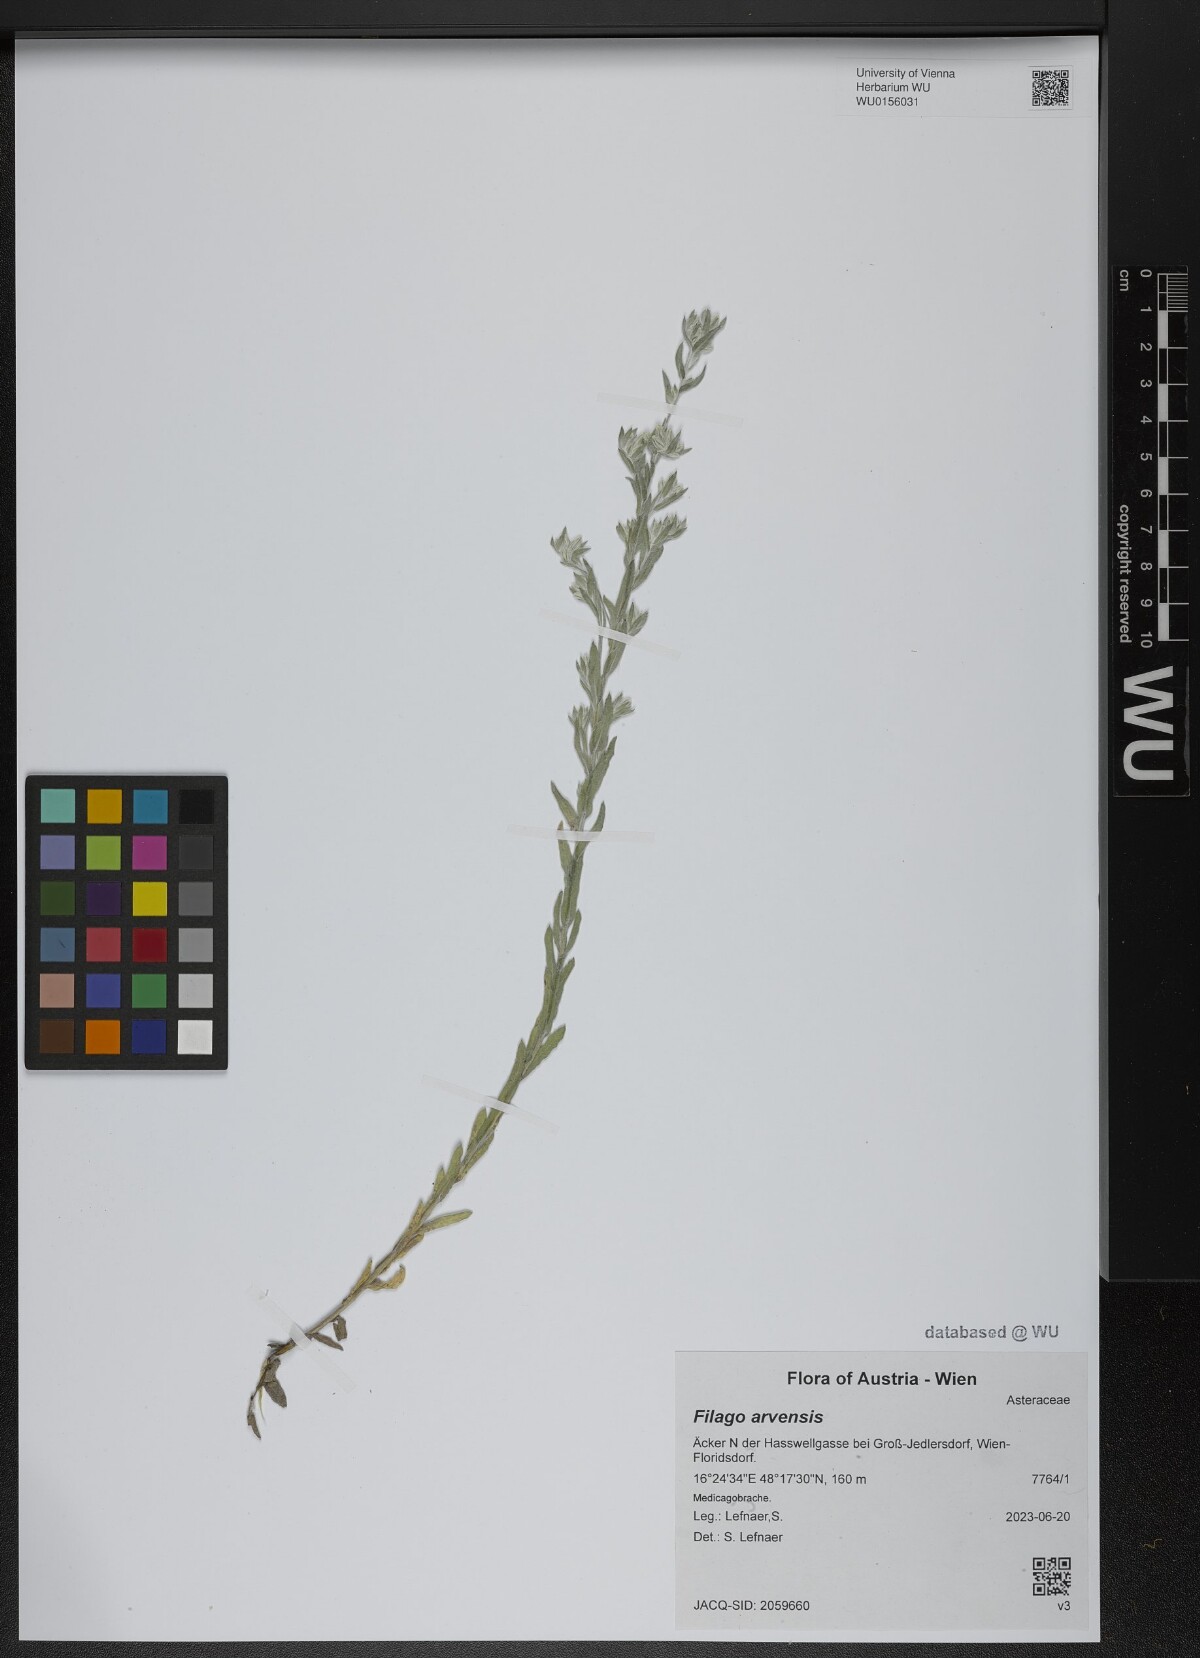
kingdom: Plantae
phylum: Tracheophyta
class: Magnoliopsida
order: Asterales
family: Asteraceae
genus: Filago
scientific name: Filago arvensis
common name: Field cudweed
